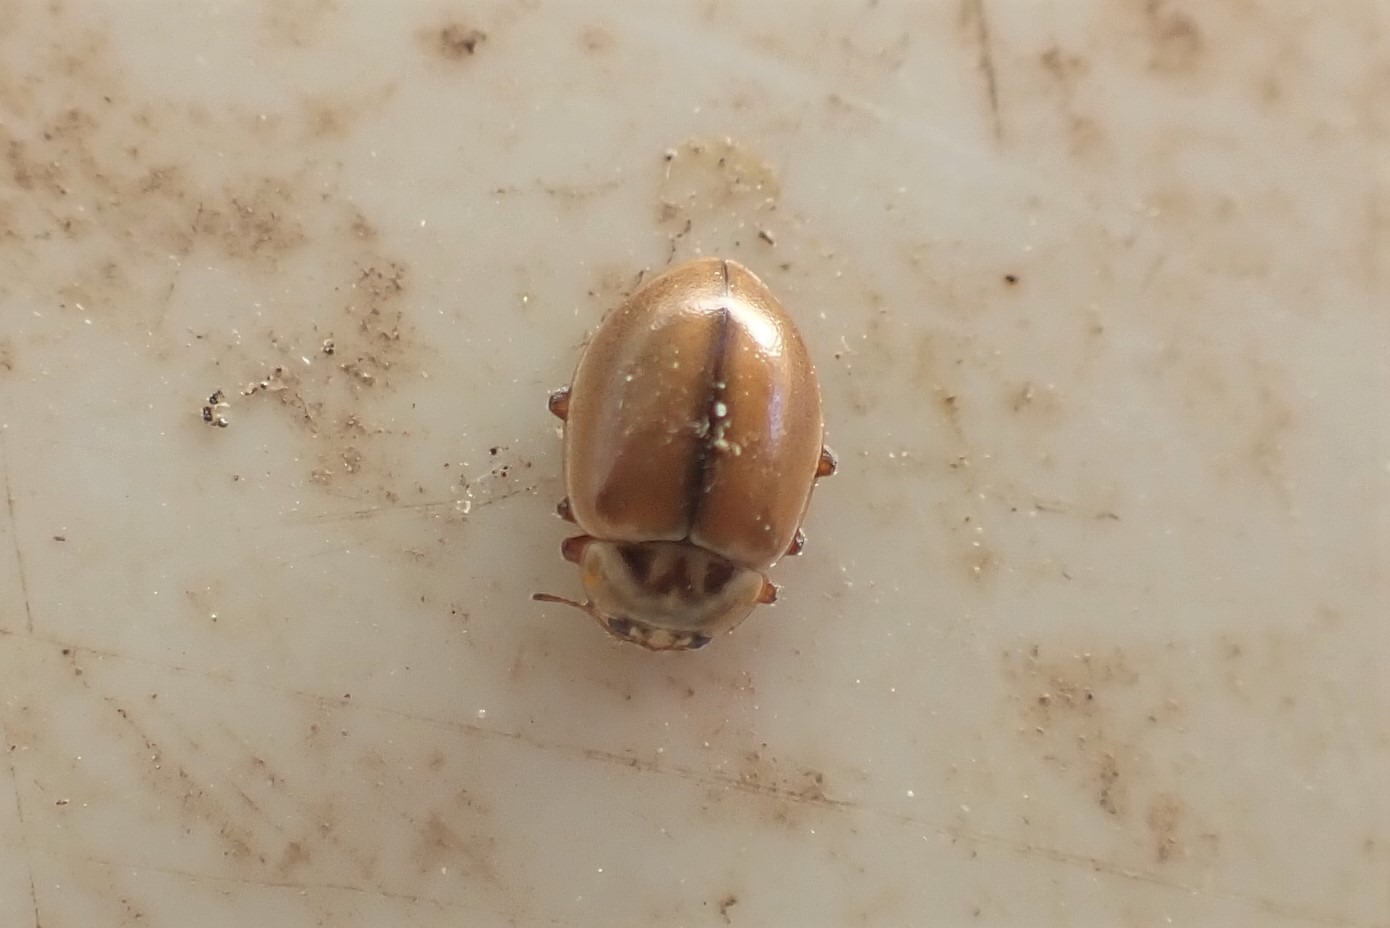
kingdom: Animalia
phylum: Arthropoda
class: Insecta
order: Coleoptera
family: Coccinellidae
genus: Aphidecta
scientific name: Aphidecta obliterata
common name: Uplettet mariehøne
